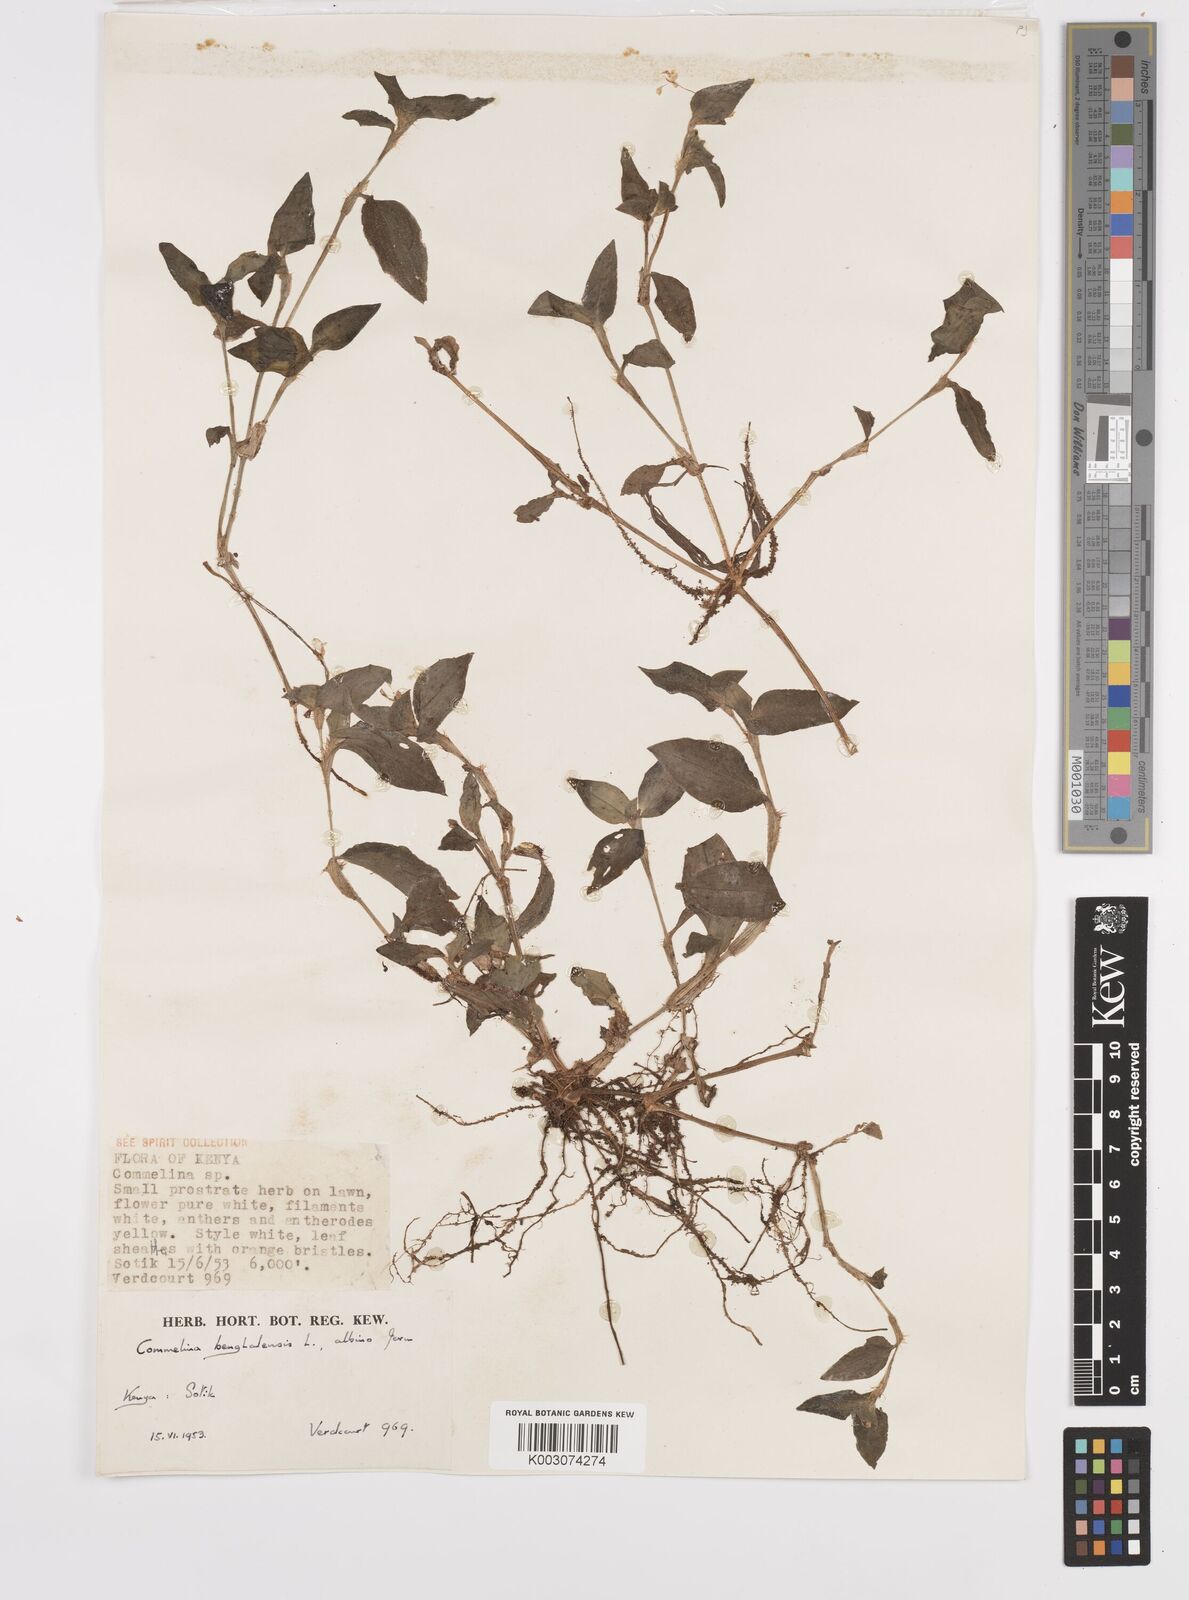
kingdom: Plantae
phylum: Tracheophyta
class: Liliopsida
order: Commelinales
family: Commelinaceae
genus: Commelina
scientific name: Commelina benghalensis
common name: Jio
